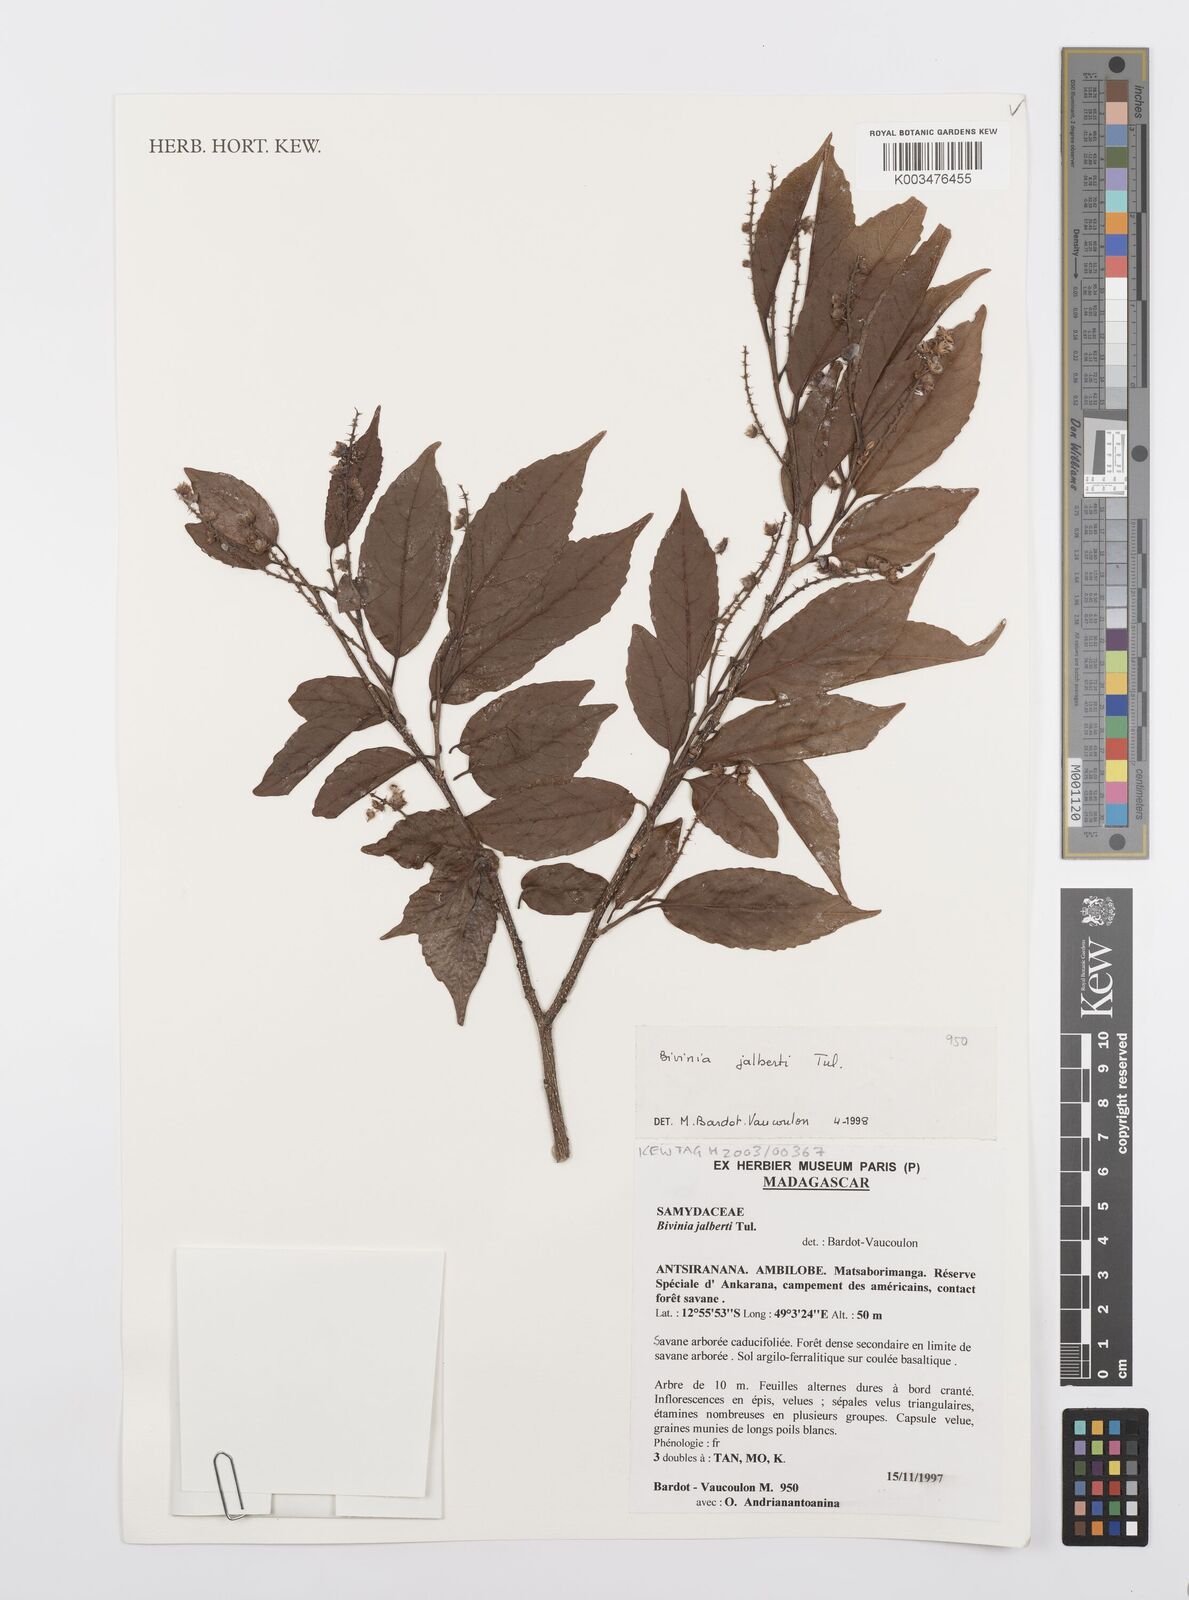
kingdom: Plantae
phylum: Tracheophyta
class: Magnoliopsida
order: Malpighiales
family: Salicaceae
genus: Bivinia
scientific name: Bivinia jalbertii
